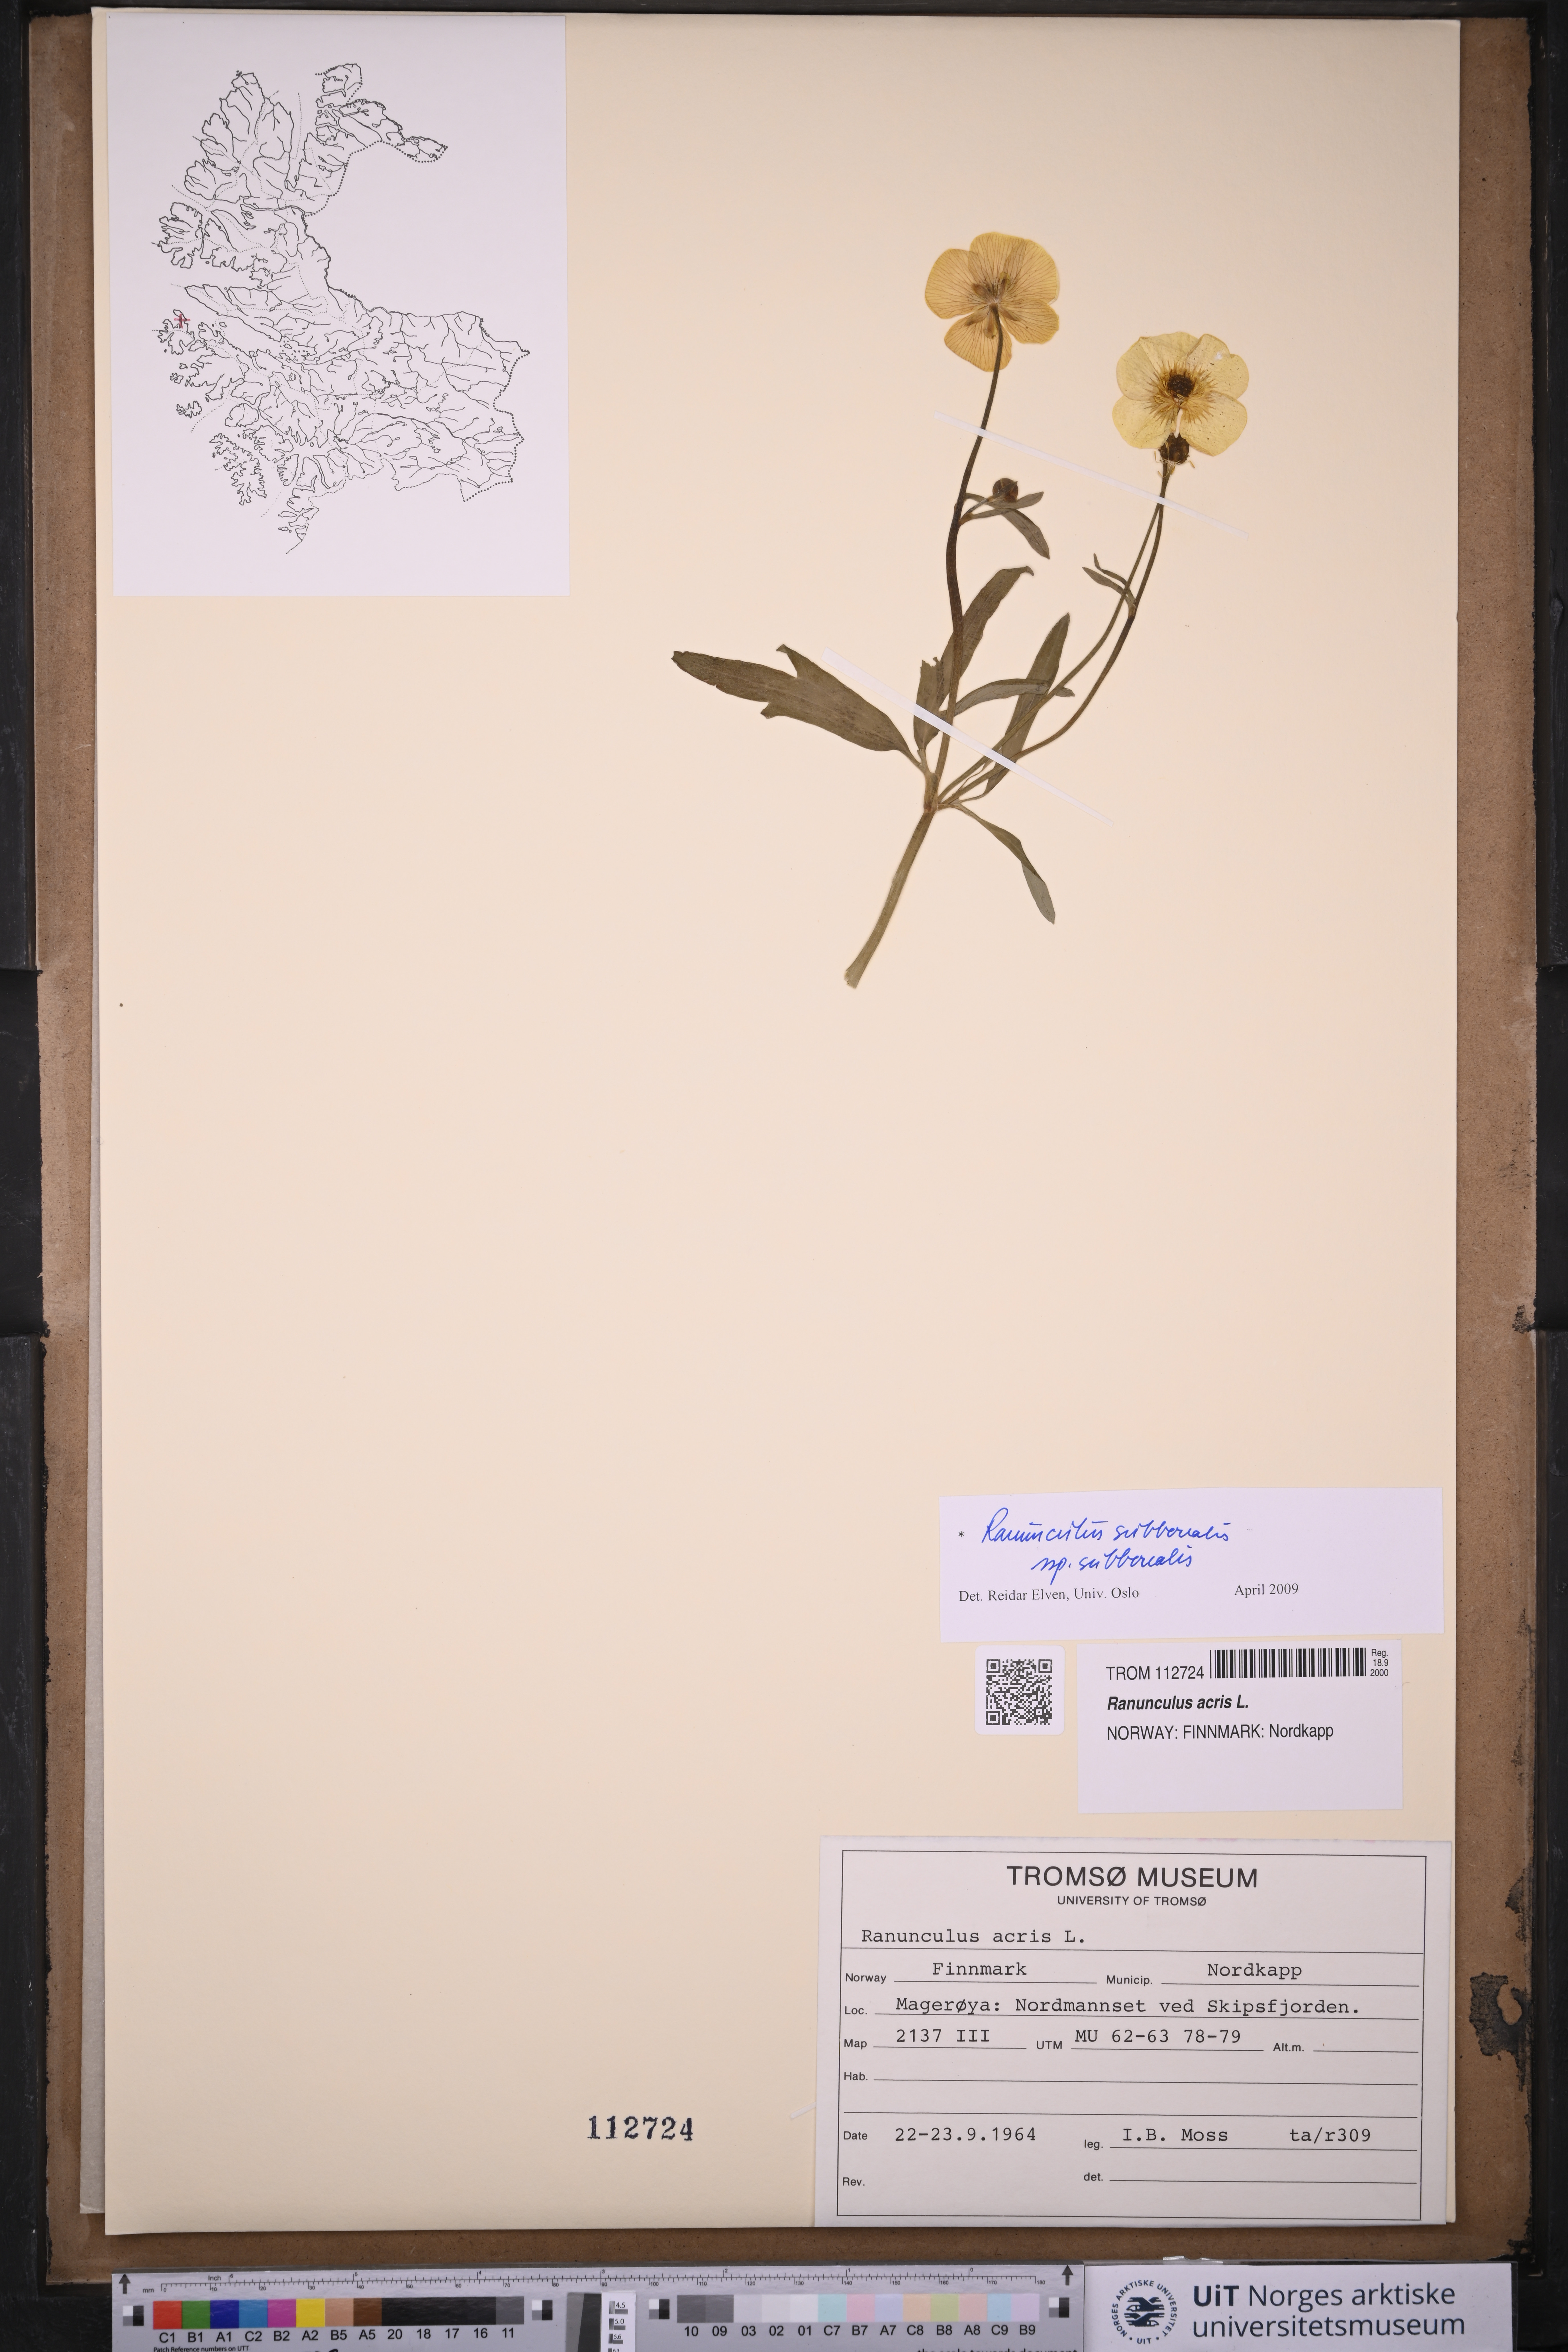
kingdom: Plantae
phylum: Tracheophyta
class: Magnoliopsida
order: Ranunculales
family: Ranunculaceae
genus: Ranunculus
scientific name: Ranunculus propinquus
